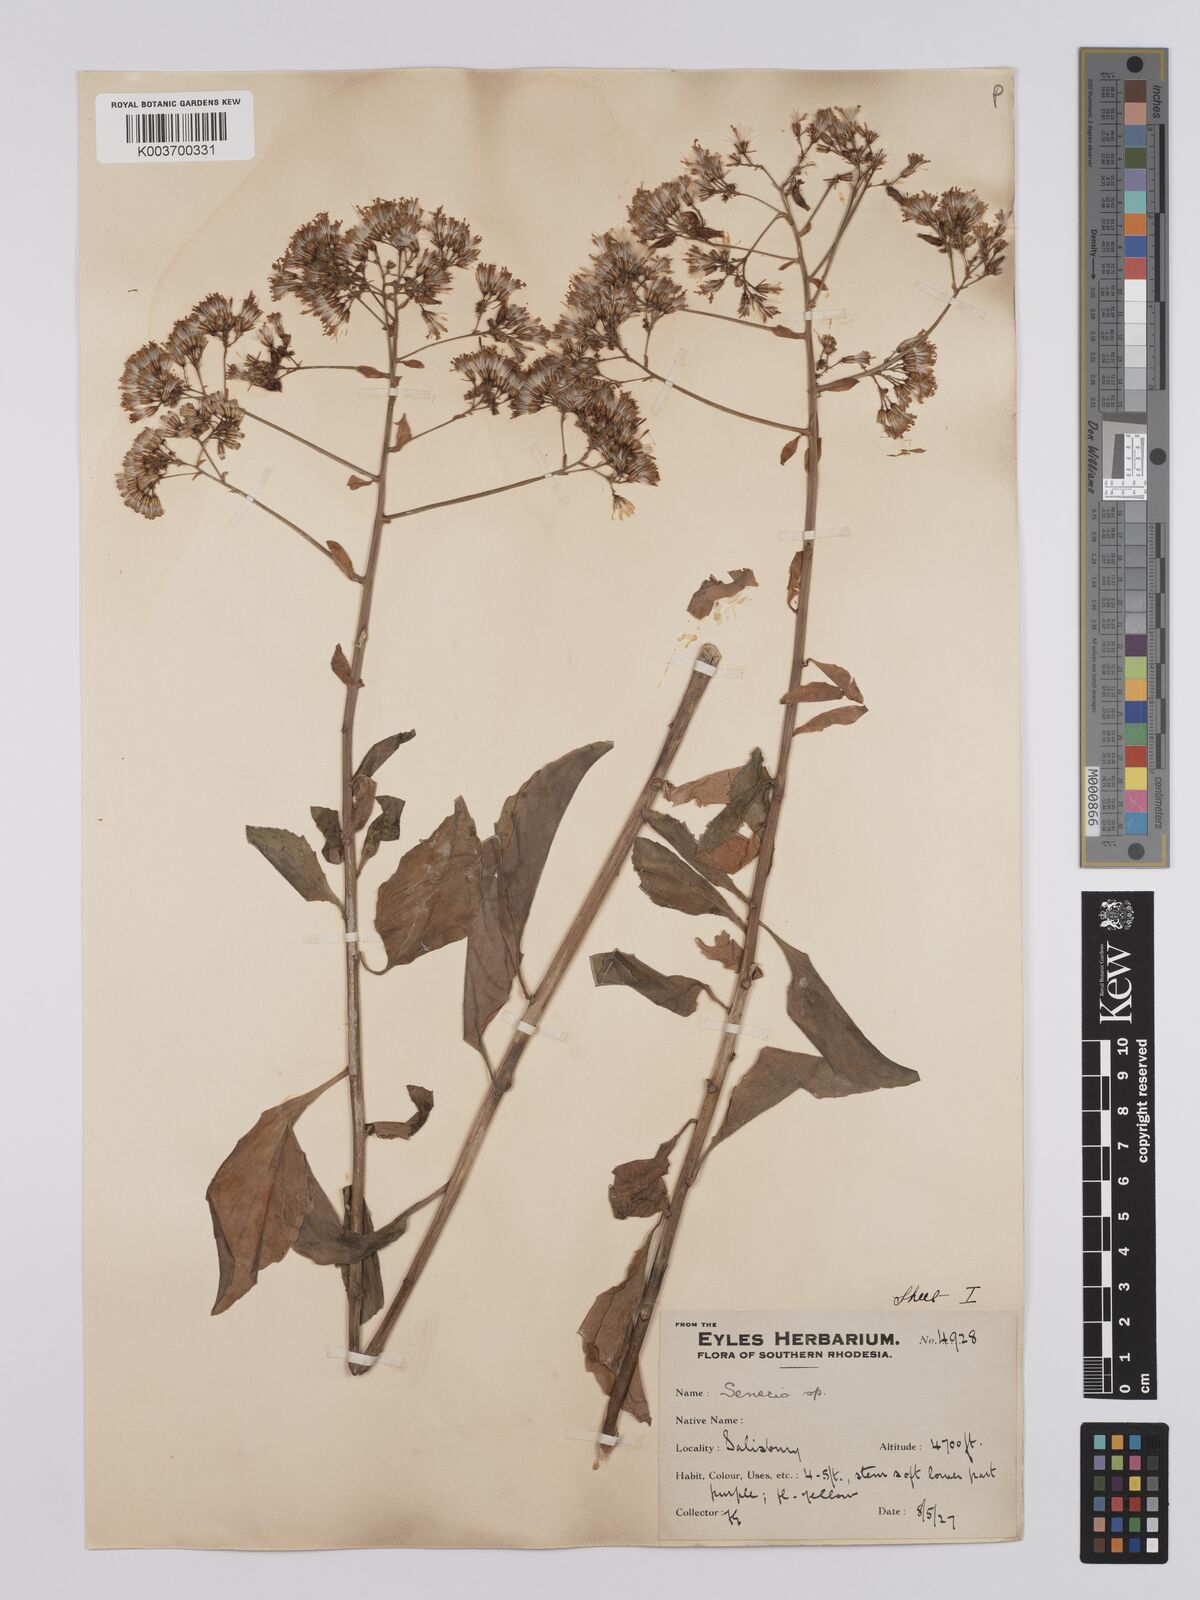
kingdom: Plantae
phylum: Tracheophyta
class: Magnoliopsida
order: Asterales
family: Asteraceae
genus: Senecio
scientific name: Senecio brachypodus
